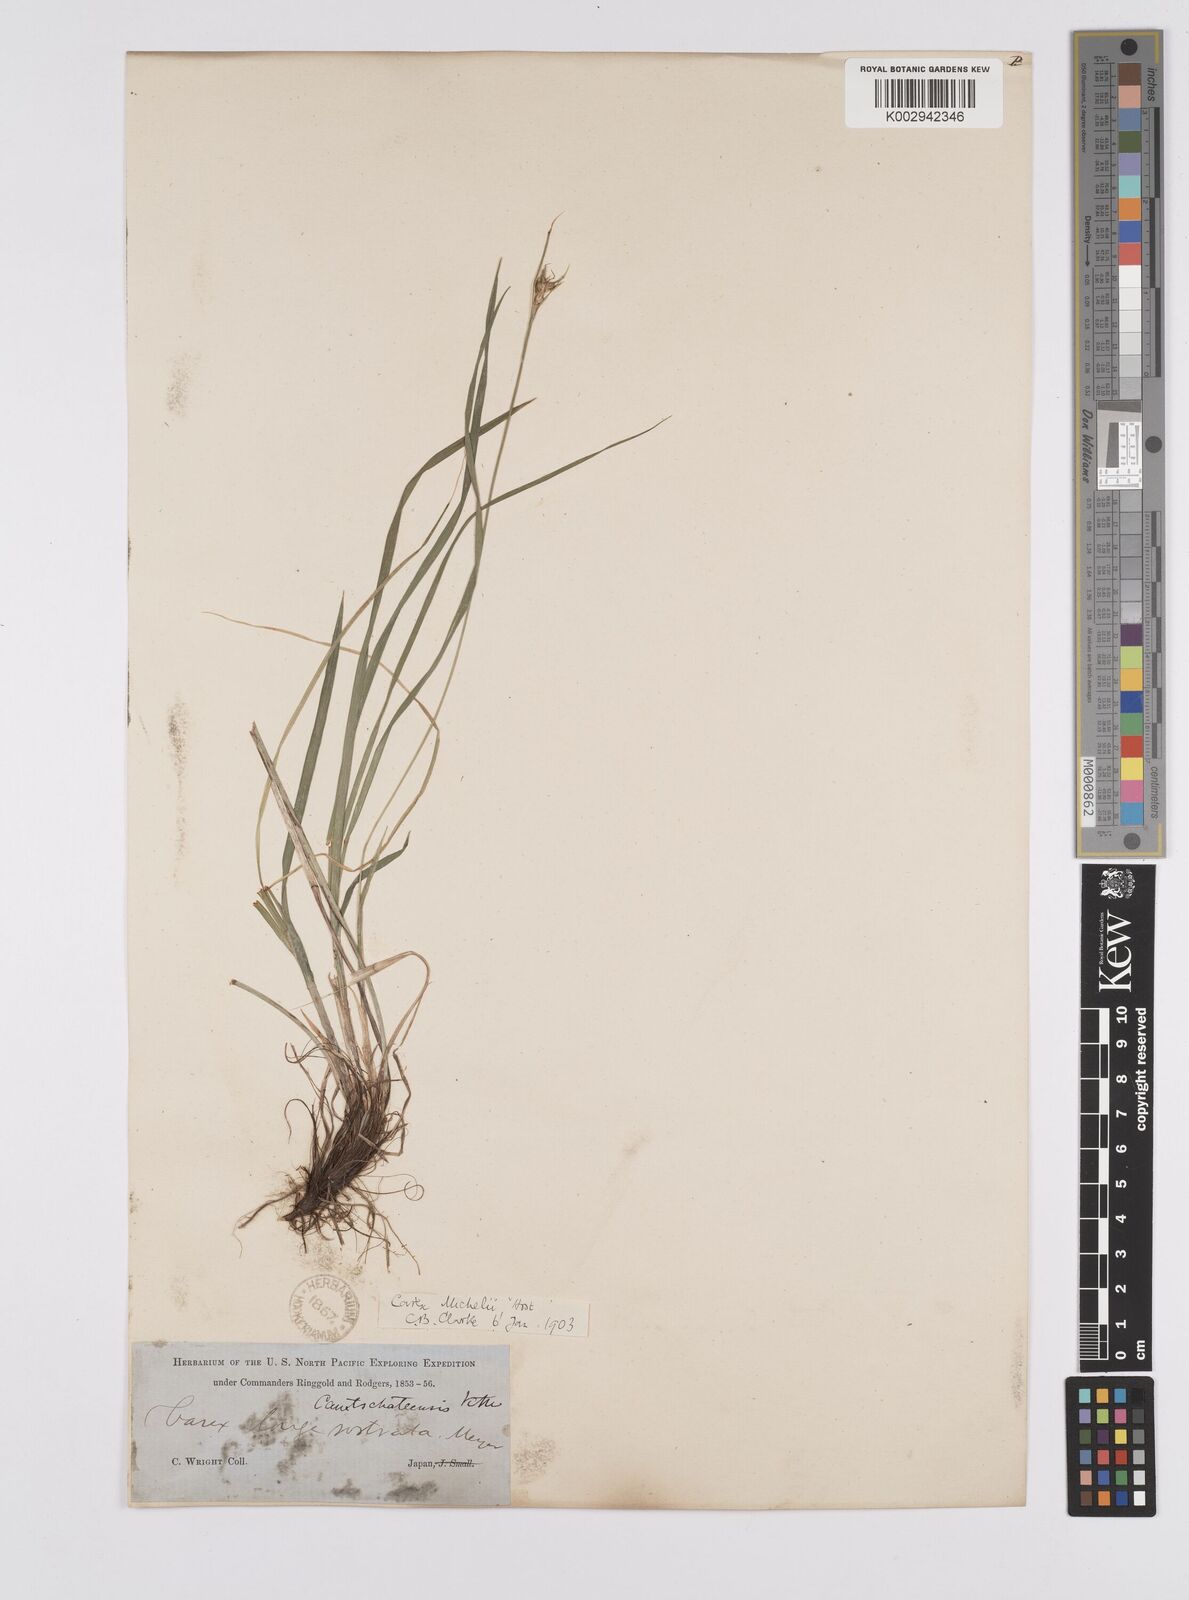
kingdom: Plantae
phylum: Tracheophyta
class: Liliopsida
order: Poales
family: Cyperaceae
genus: Carex
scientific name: Carex michelii
